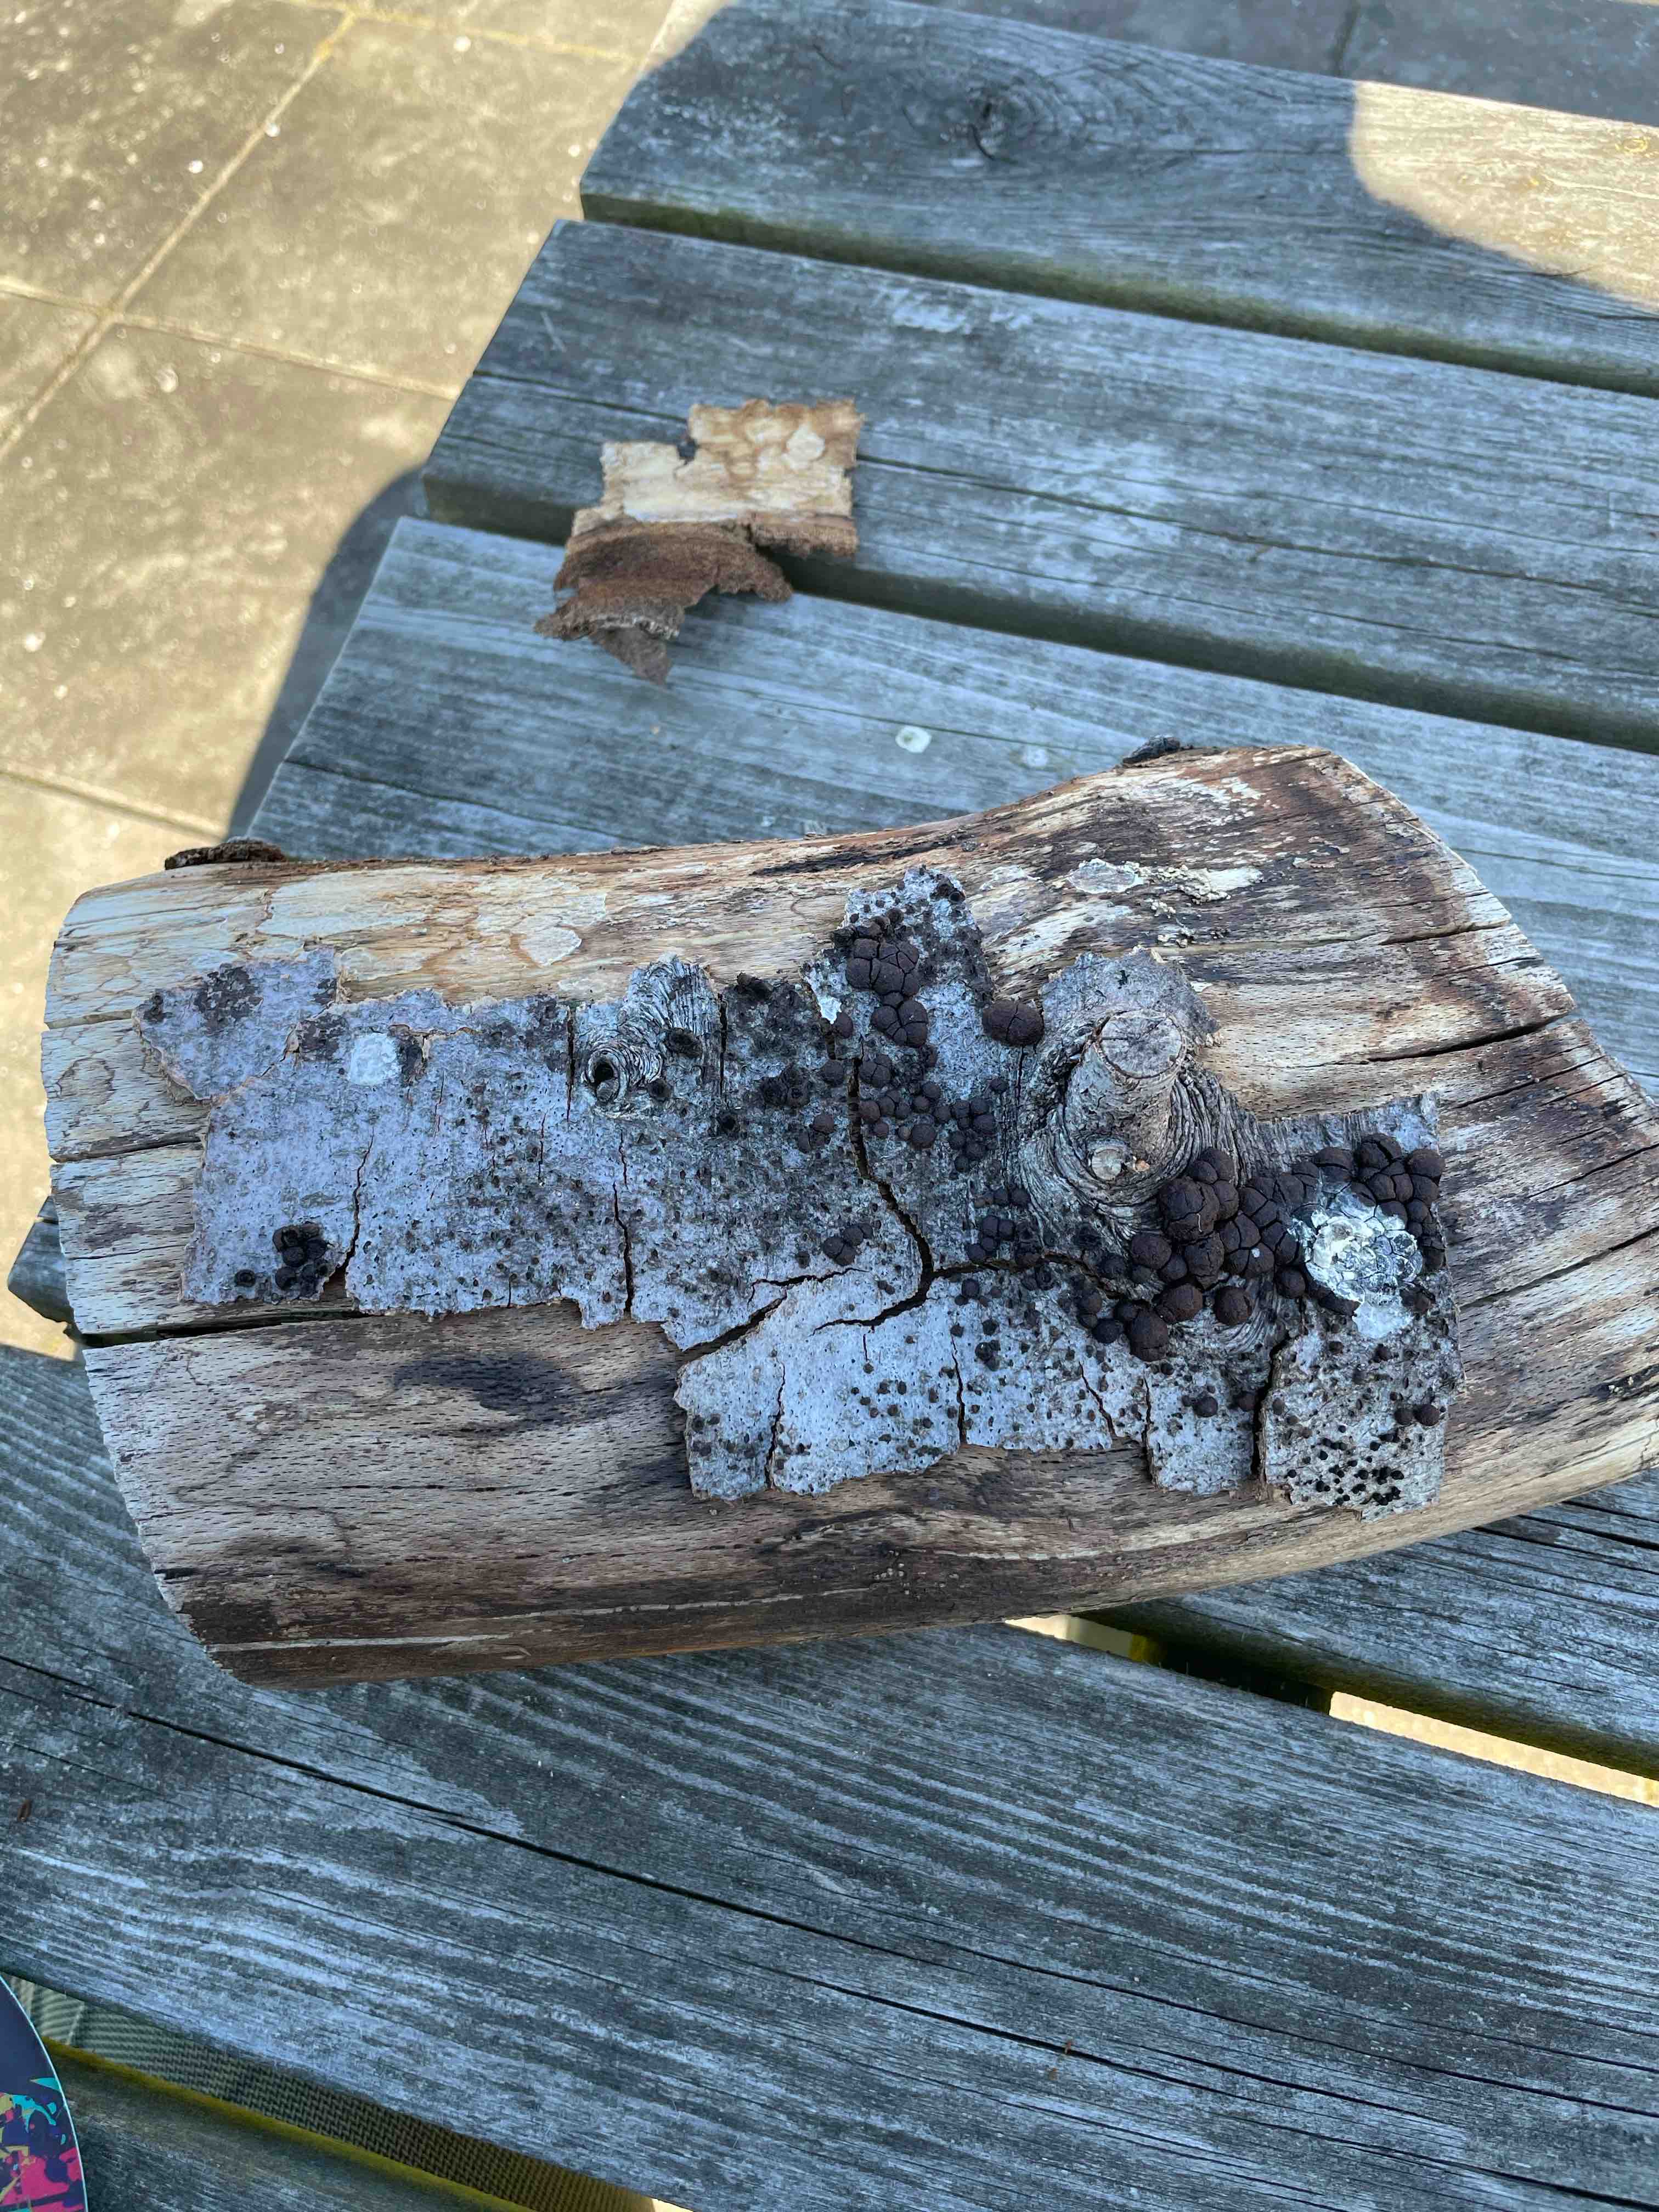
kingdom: Fungi
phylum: Ascomycota
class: Sordariomycetes
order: Xylariales
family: Hypoxylaceae
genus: Hypoxylon
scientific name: Hypoxylon fragiforme
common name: kuljordbær
